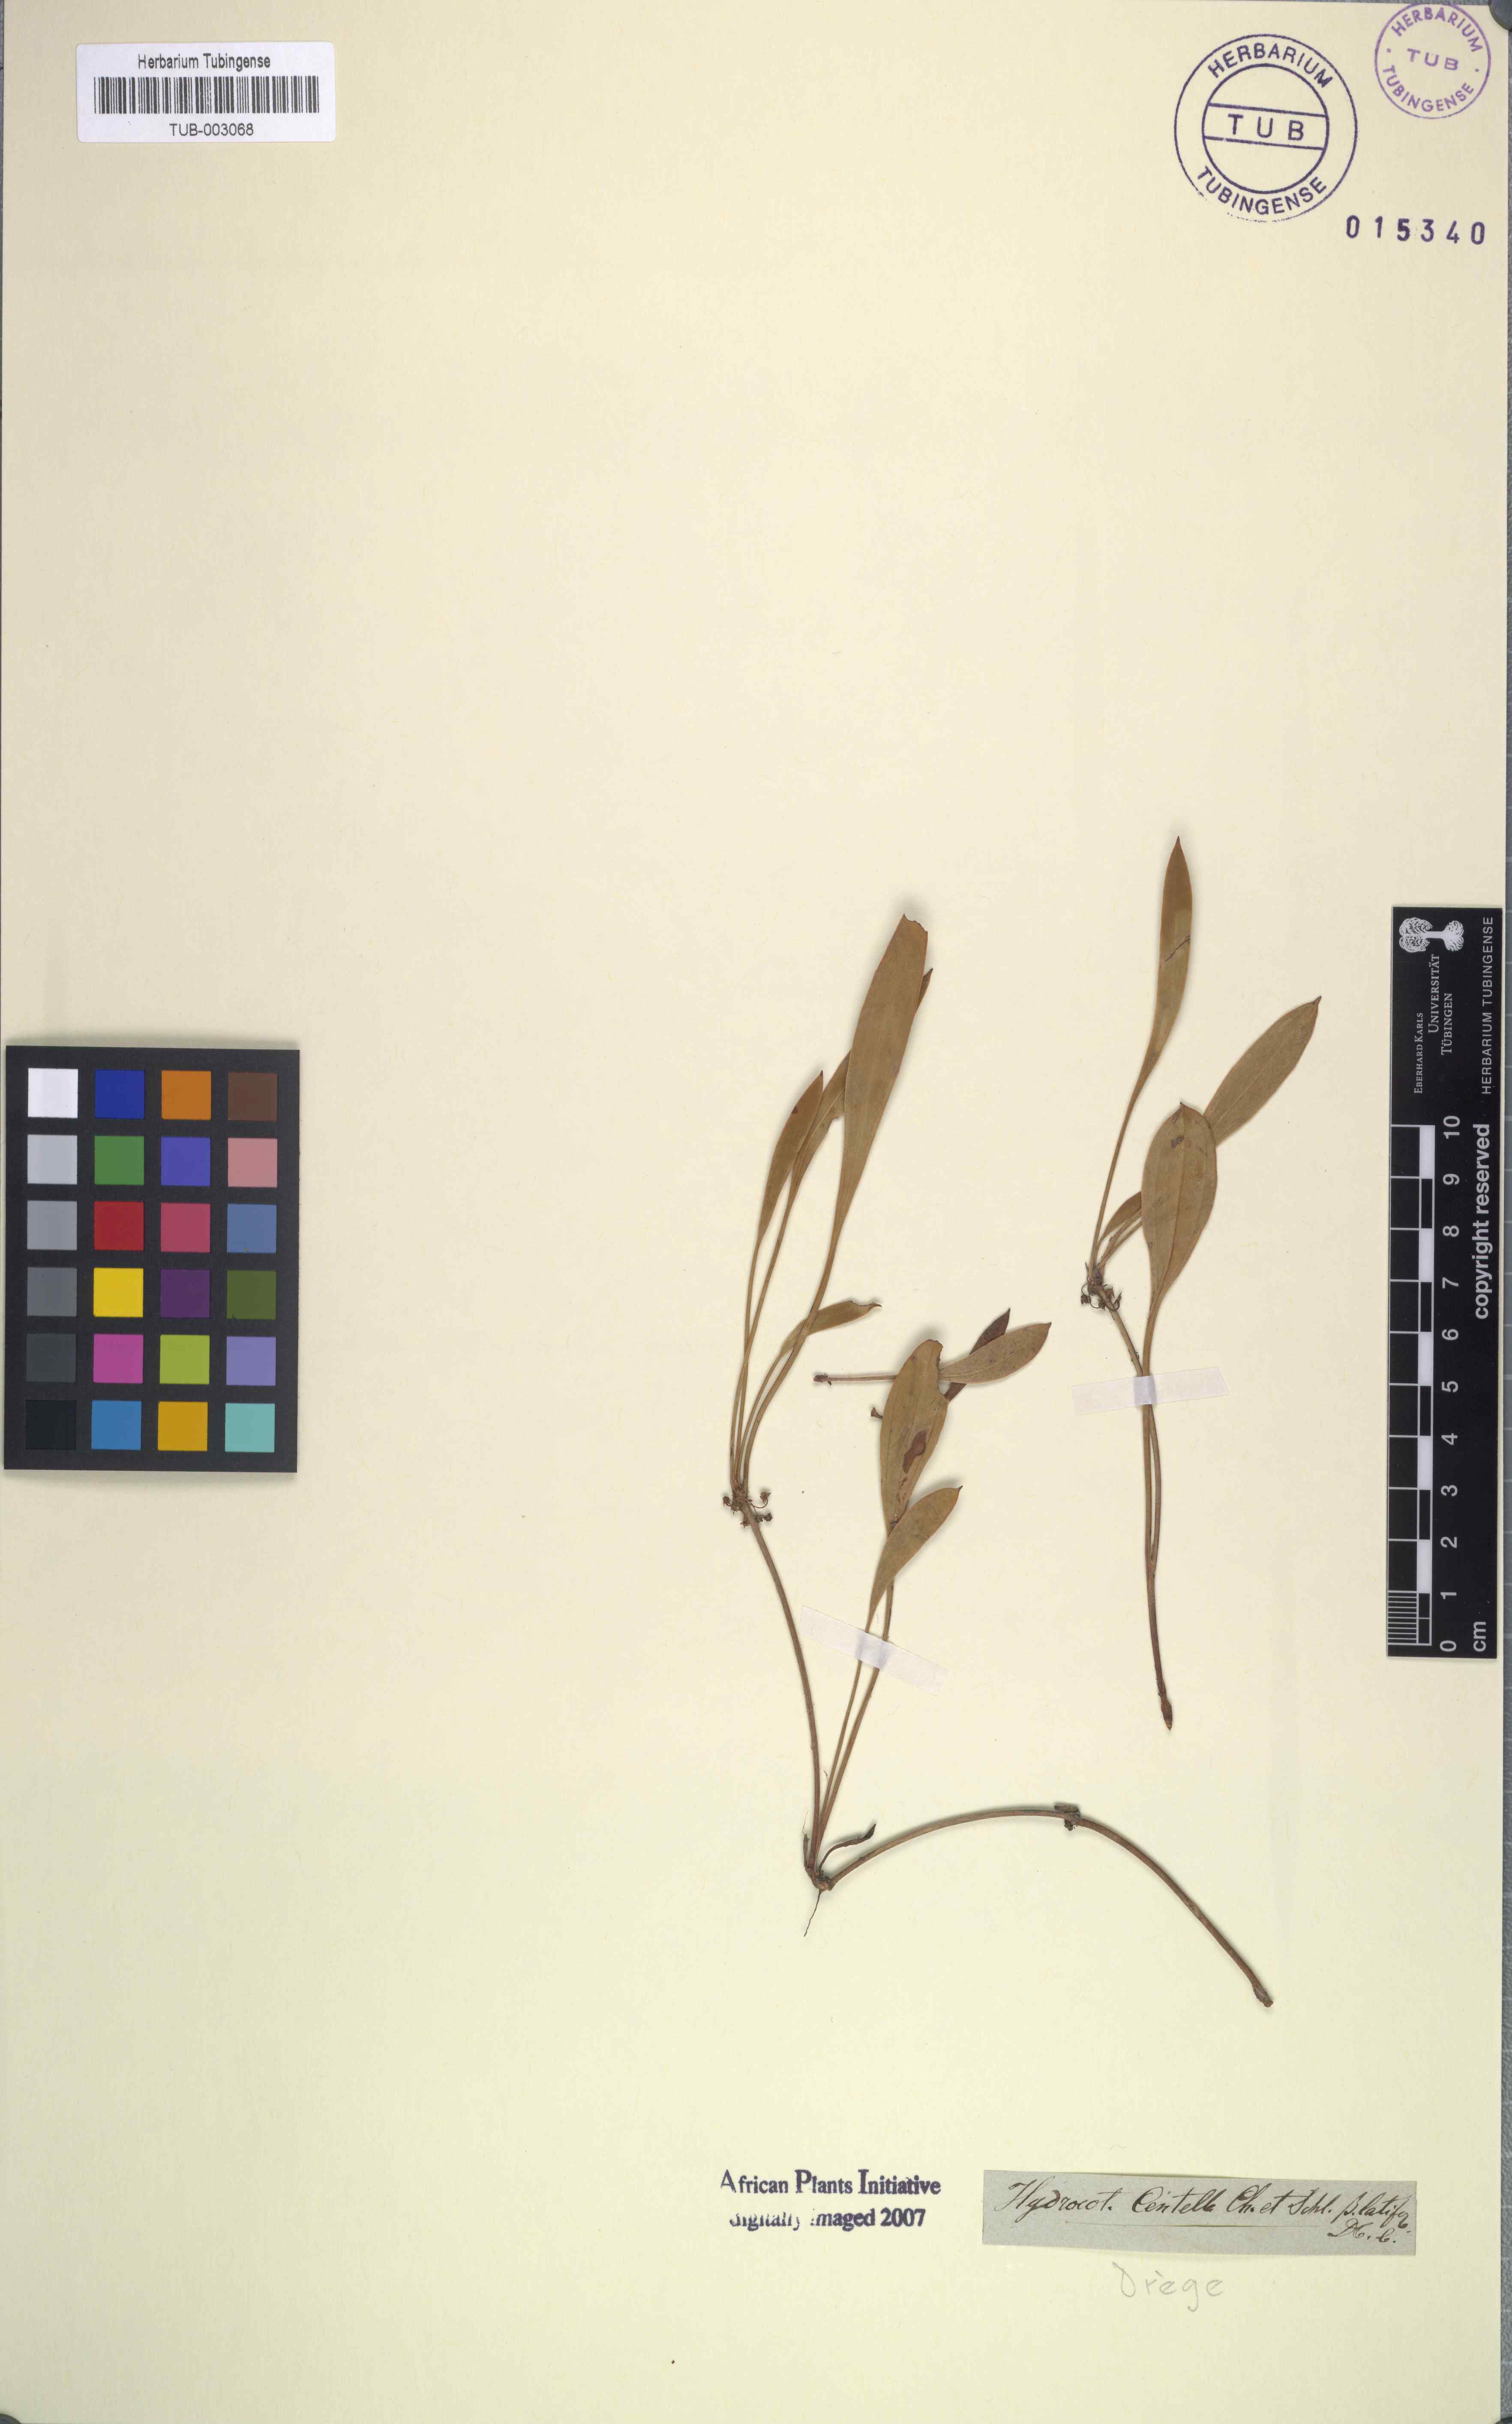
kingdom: Plantae
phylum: Tracheophyta
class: Magnoliopsida
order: Apiales
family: Apiaceae
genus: Centella
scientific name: Centella glabrata
